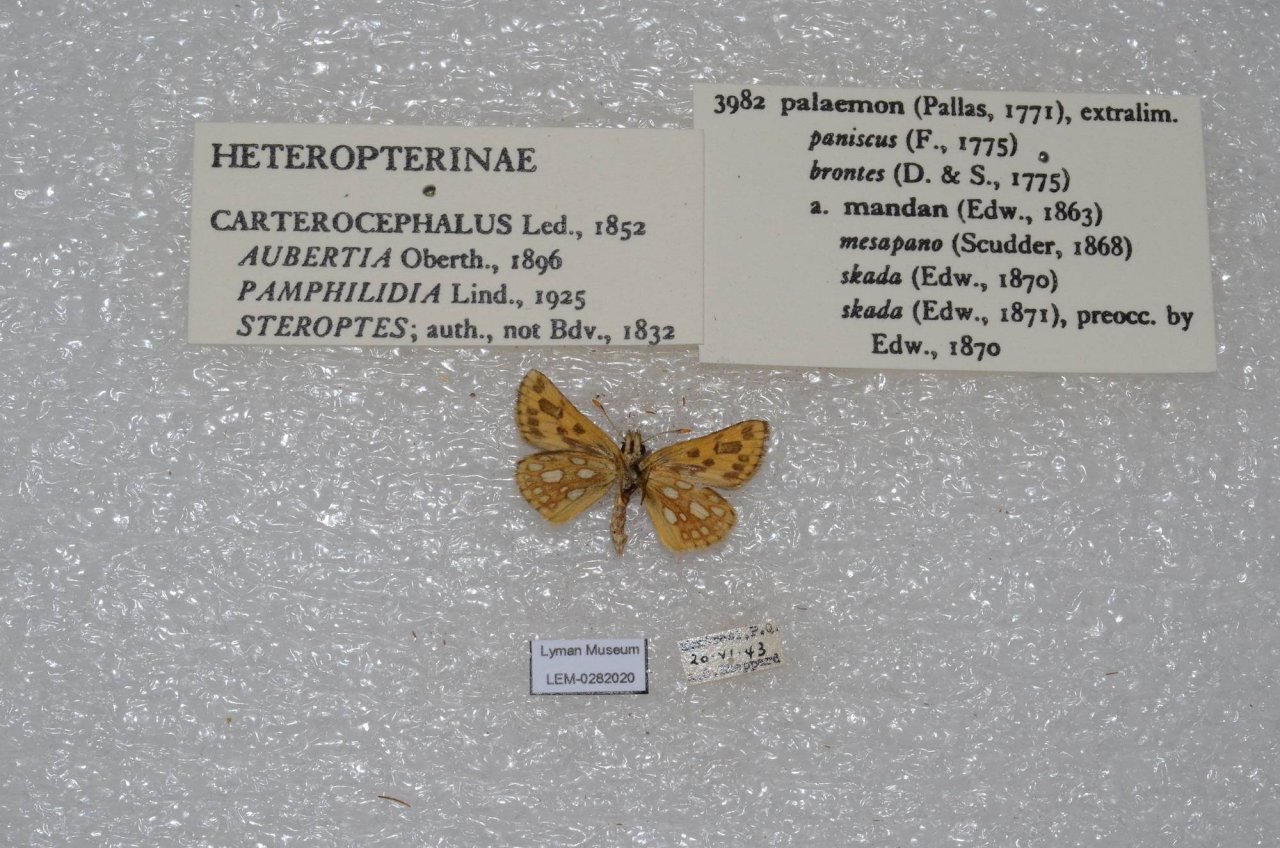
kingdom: Animalia
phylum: Arthropoda
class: Insecta
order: Lepidoptera
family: Hesperiidae
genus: Carterocephalus
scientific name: Carterocephalus palaemon
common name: Chequered Skipper
